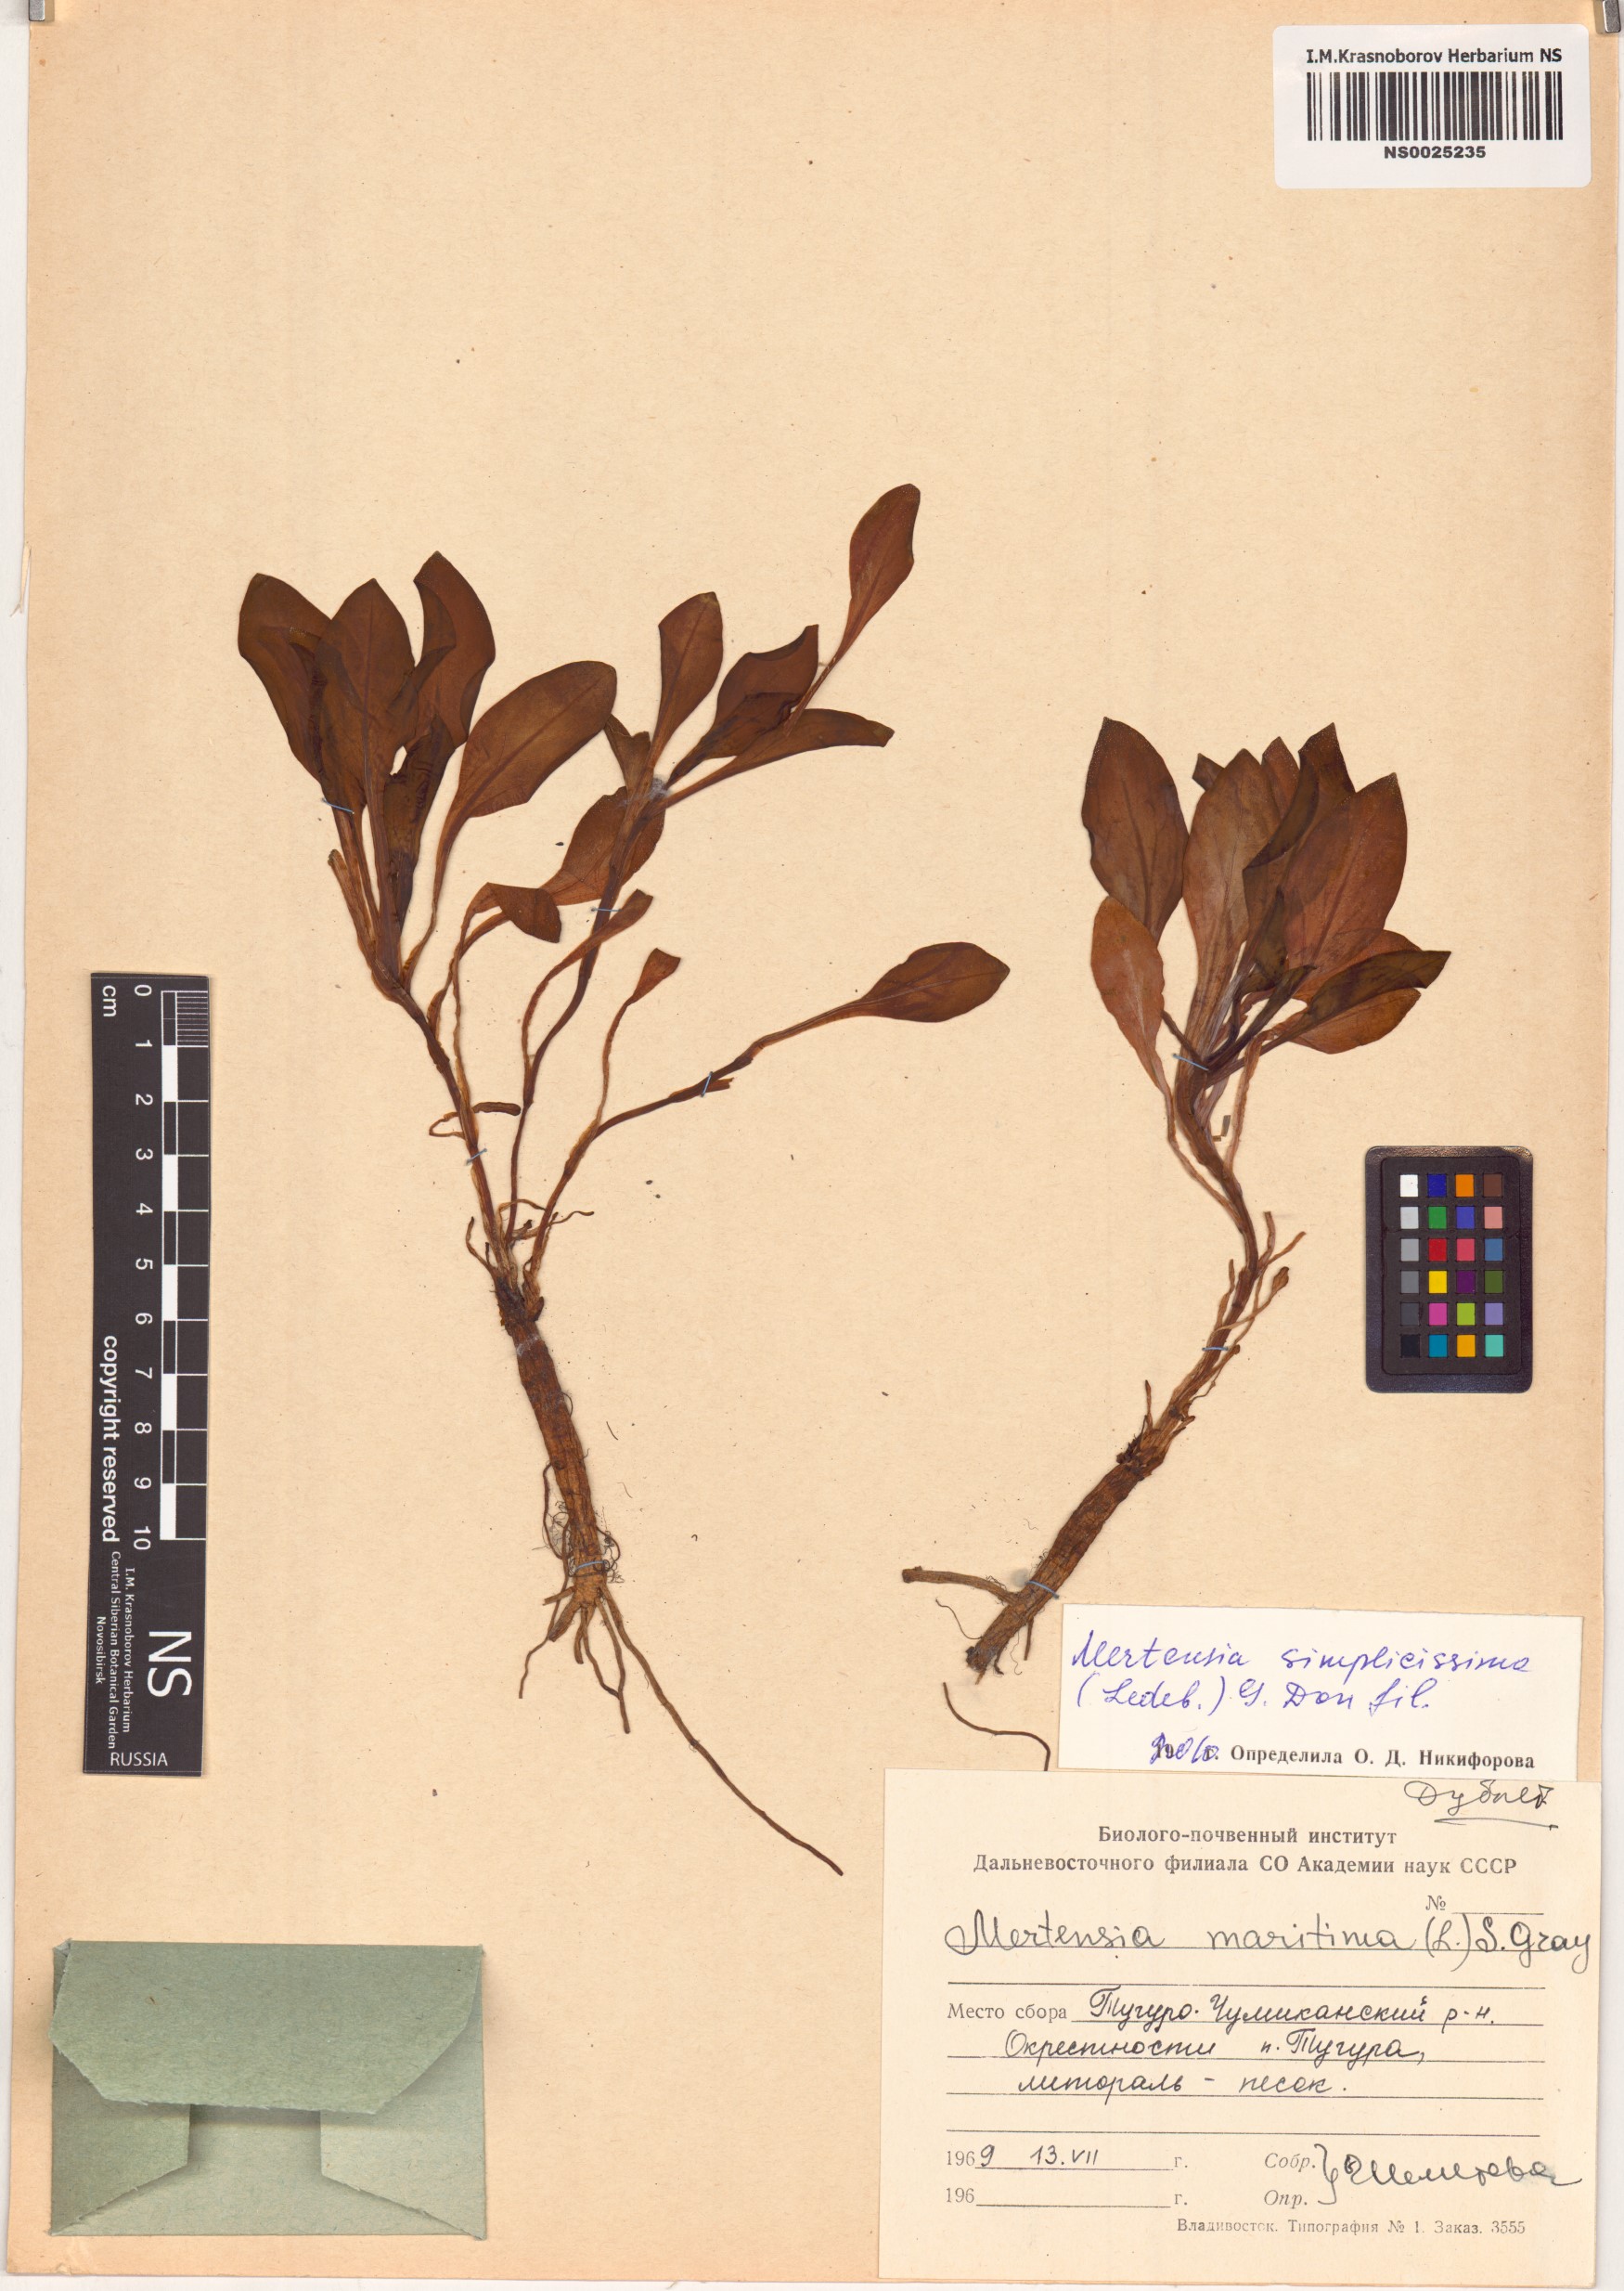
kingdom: Plantae
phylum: Tracheophyta
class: Magnoliopsida
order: Boraginales
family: Boraginaceae
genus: Mertensia
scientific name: Mertensia simplicissima
